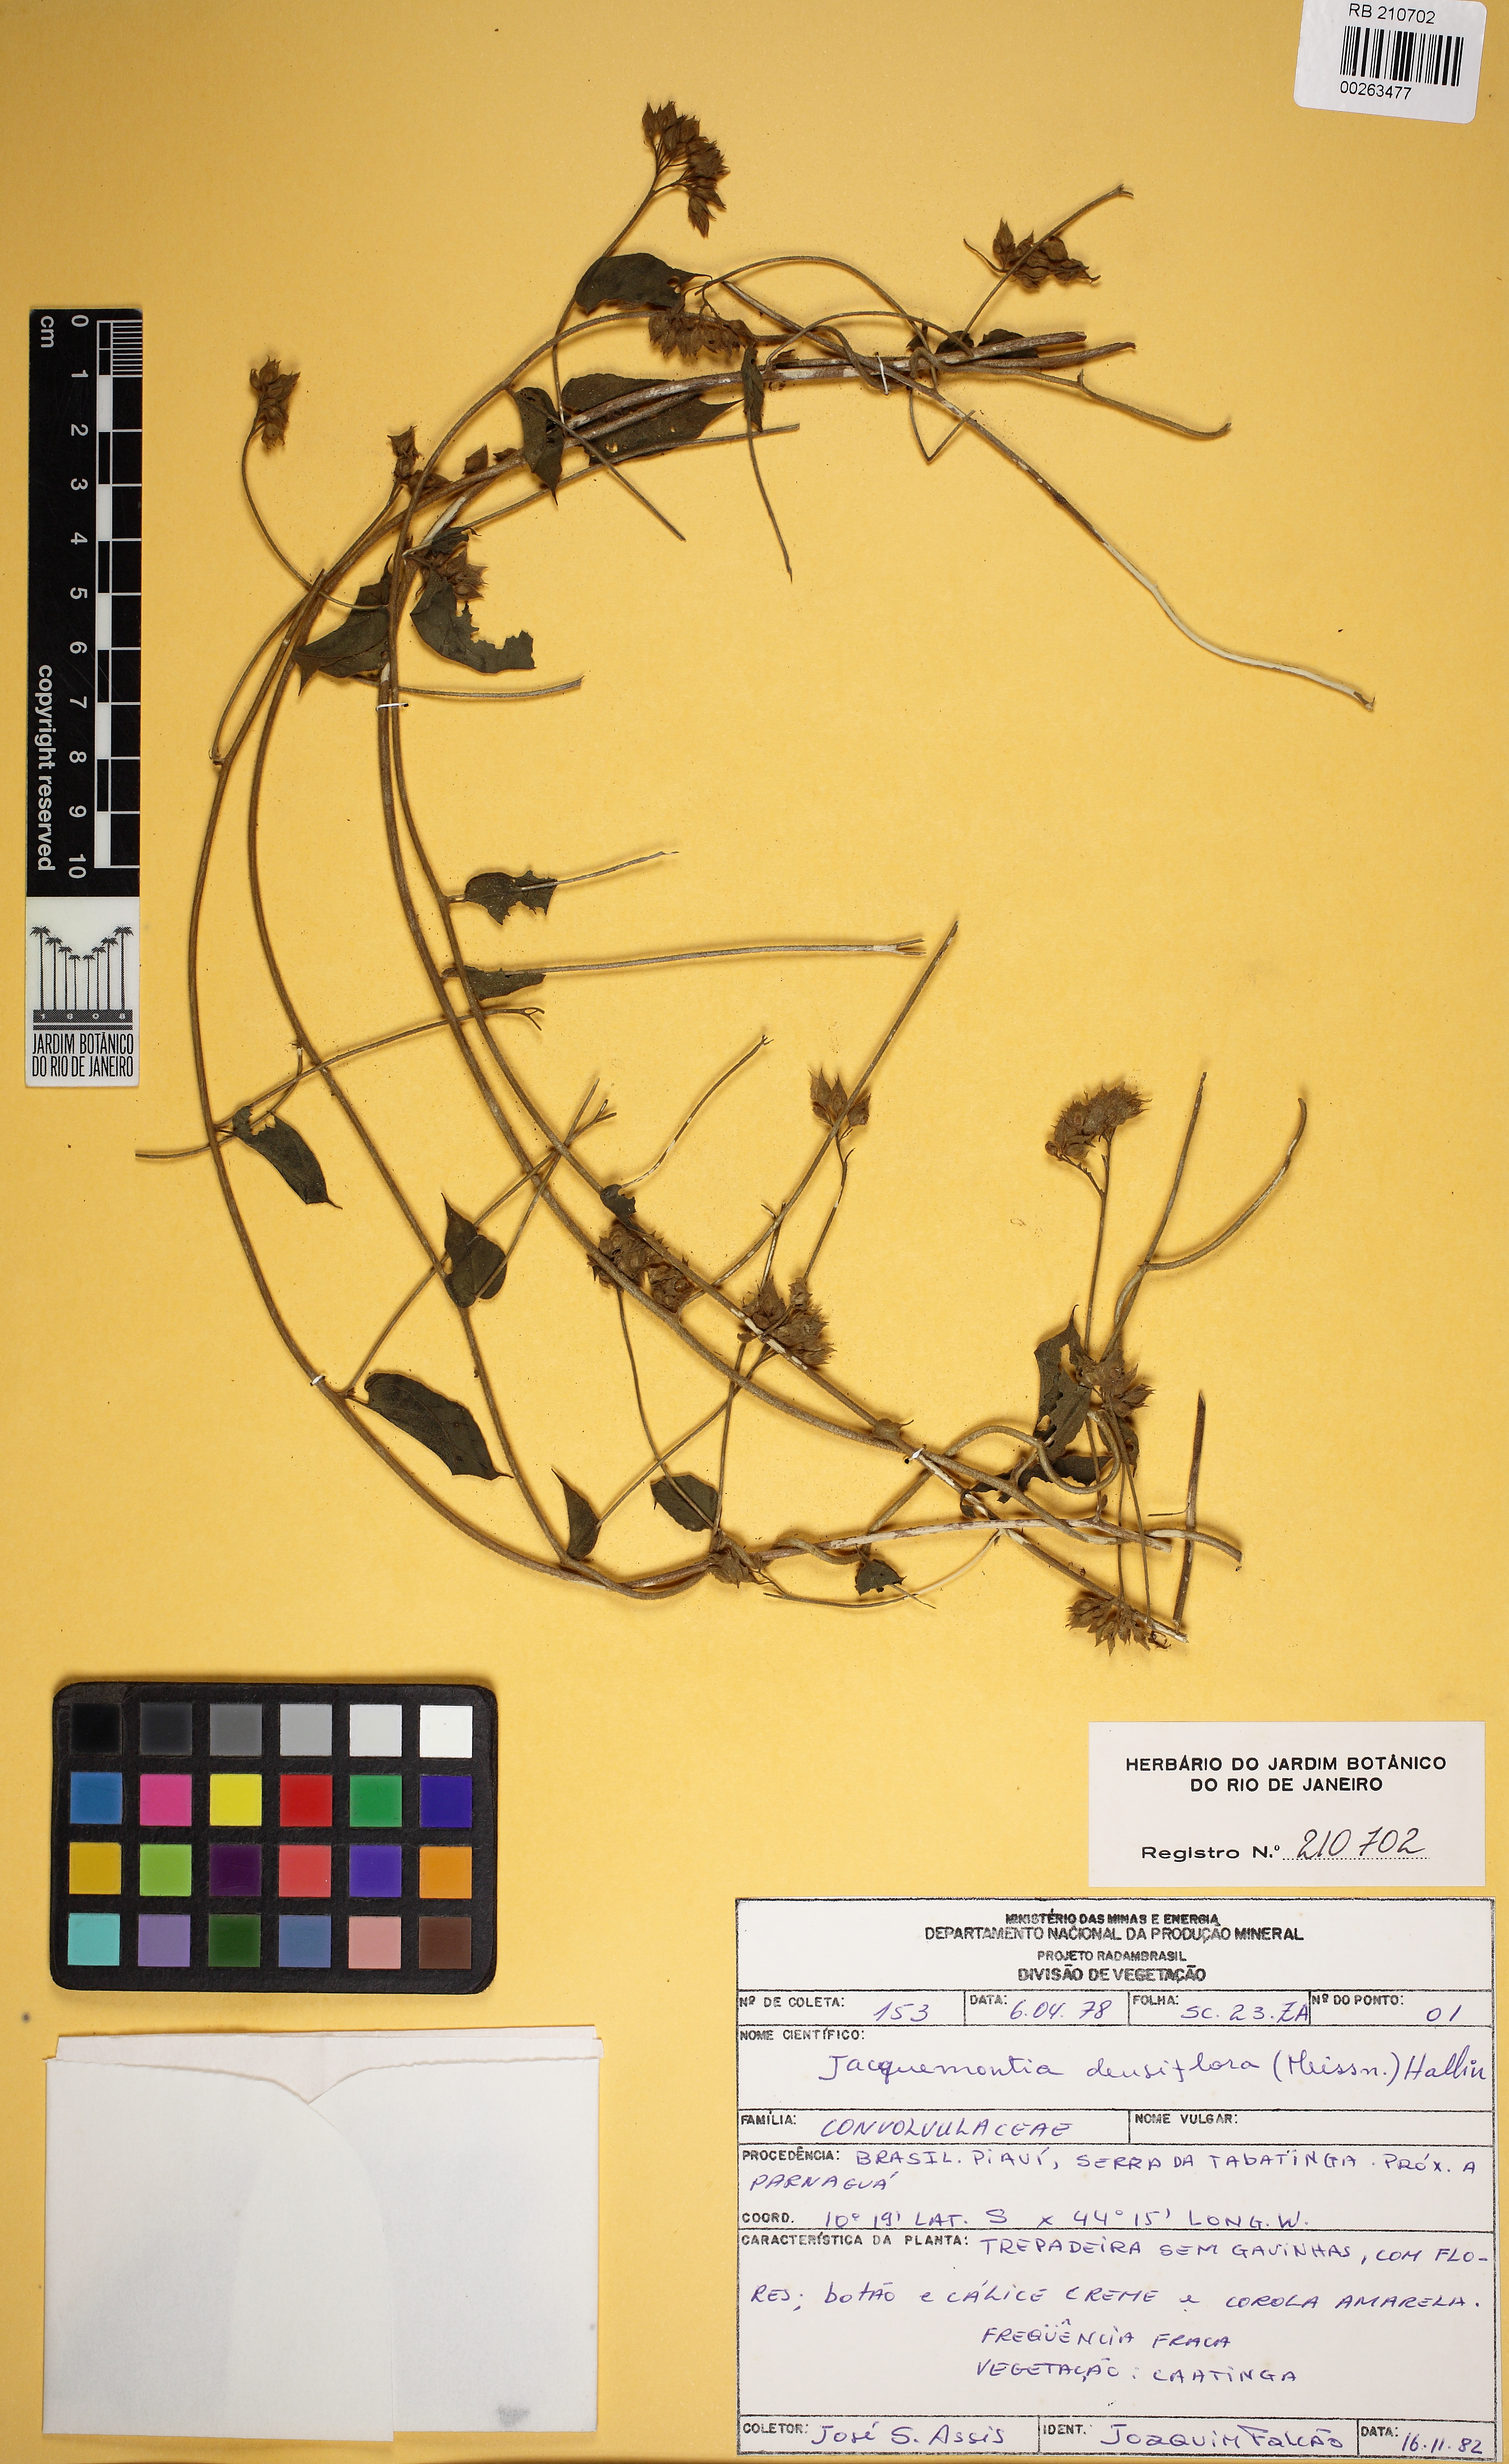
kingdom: Plantae
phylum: Tracheophyta
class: Magnoliopsida
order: Solanales
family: Convolvulaceae
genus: Jacquemontia
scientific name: Jacquemontia densiflora
